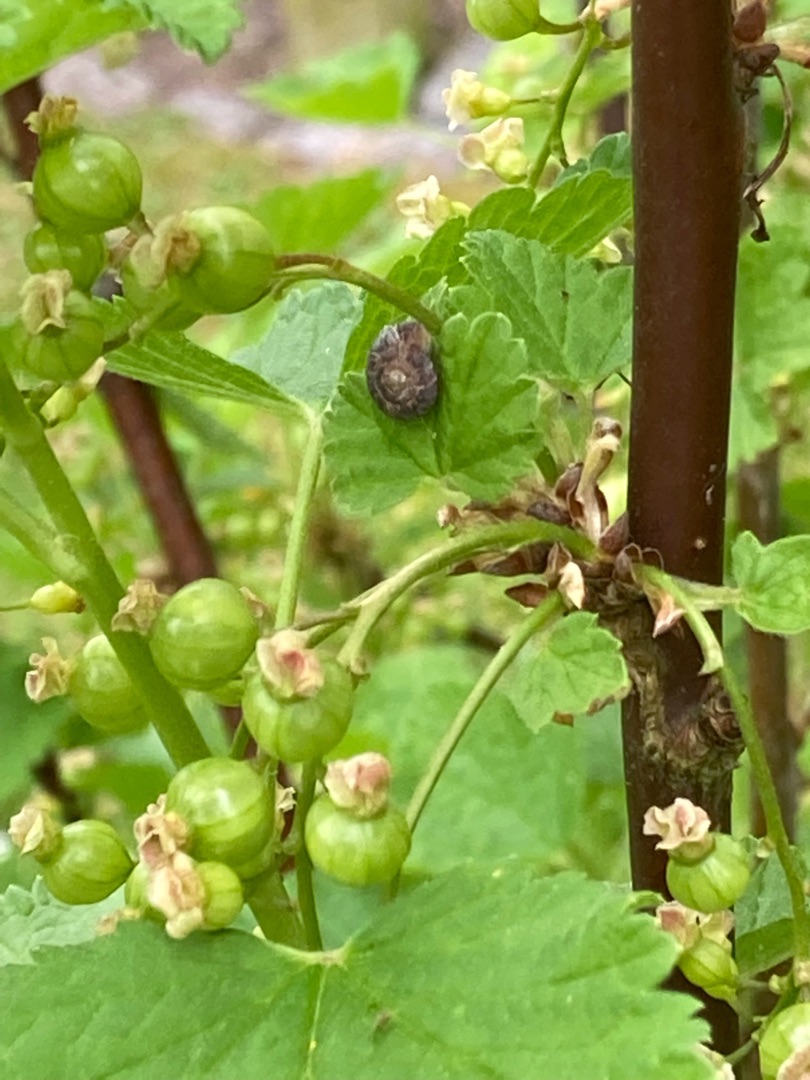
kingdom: Plantae
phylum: Tracheophyta
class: Magnoliopsida
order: Saxifragales
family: Grossulariaceae
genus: Ribes
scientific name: Ribes
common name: Ribsslægten
